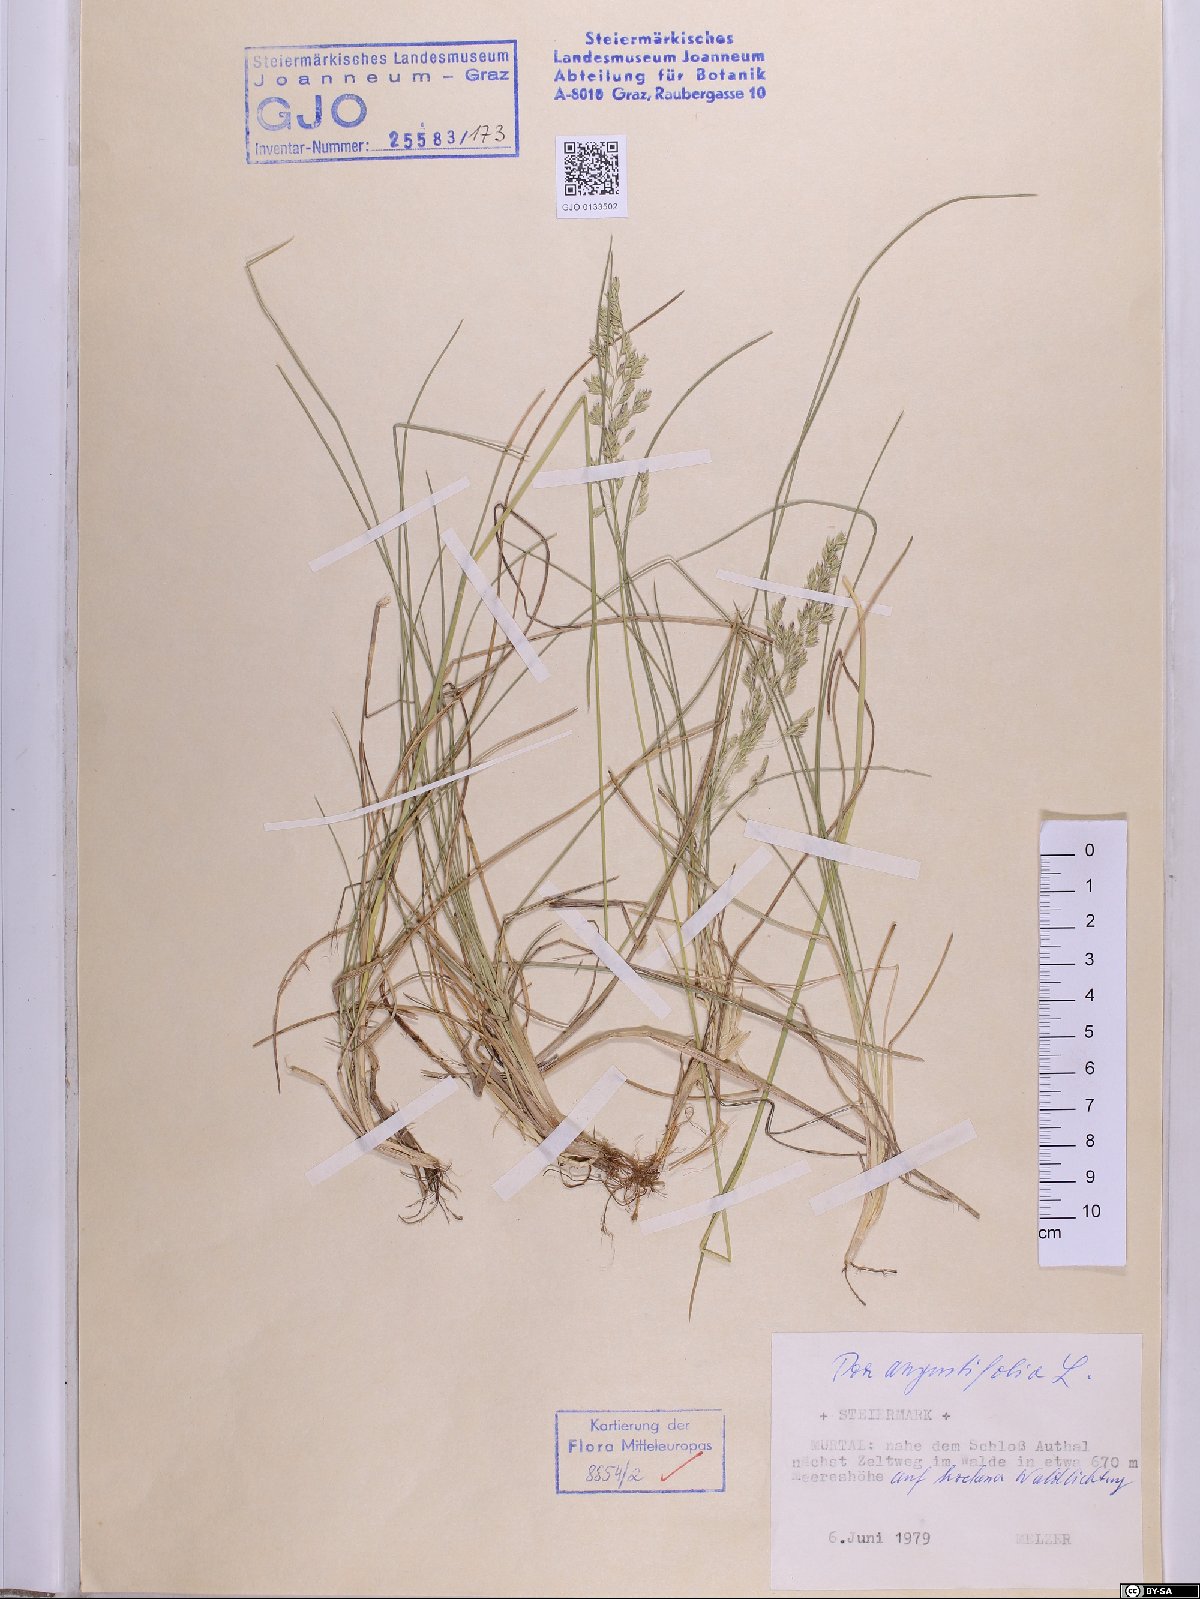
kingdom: Plantae
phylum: Tracheophyta
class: Liliopsida
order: Poales
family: Poaceae
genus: Poa
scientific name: Poa angustifolia
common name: Narrow-leaved meadow-grass
